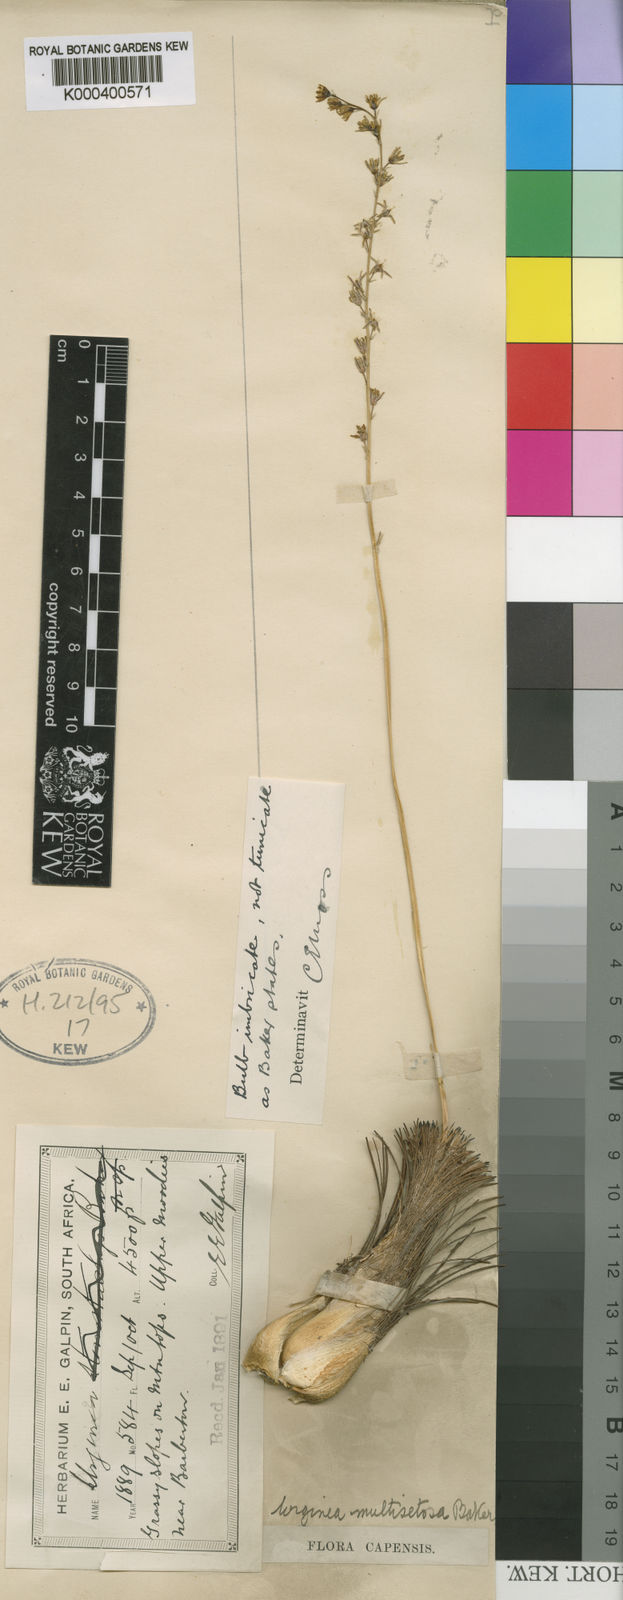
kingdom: Plantae
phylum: Tracheophyta
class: Liliopsida
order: Asparagales
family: Asparagaceae
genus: Drimia
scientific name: Drimia multisetosa
